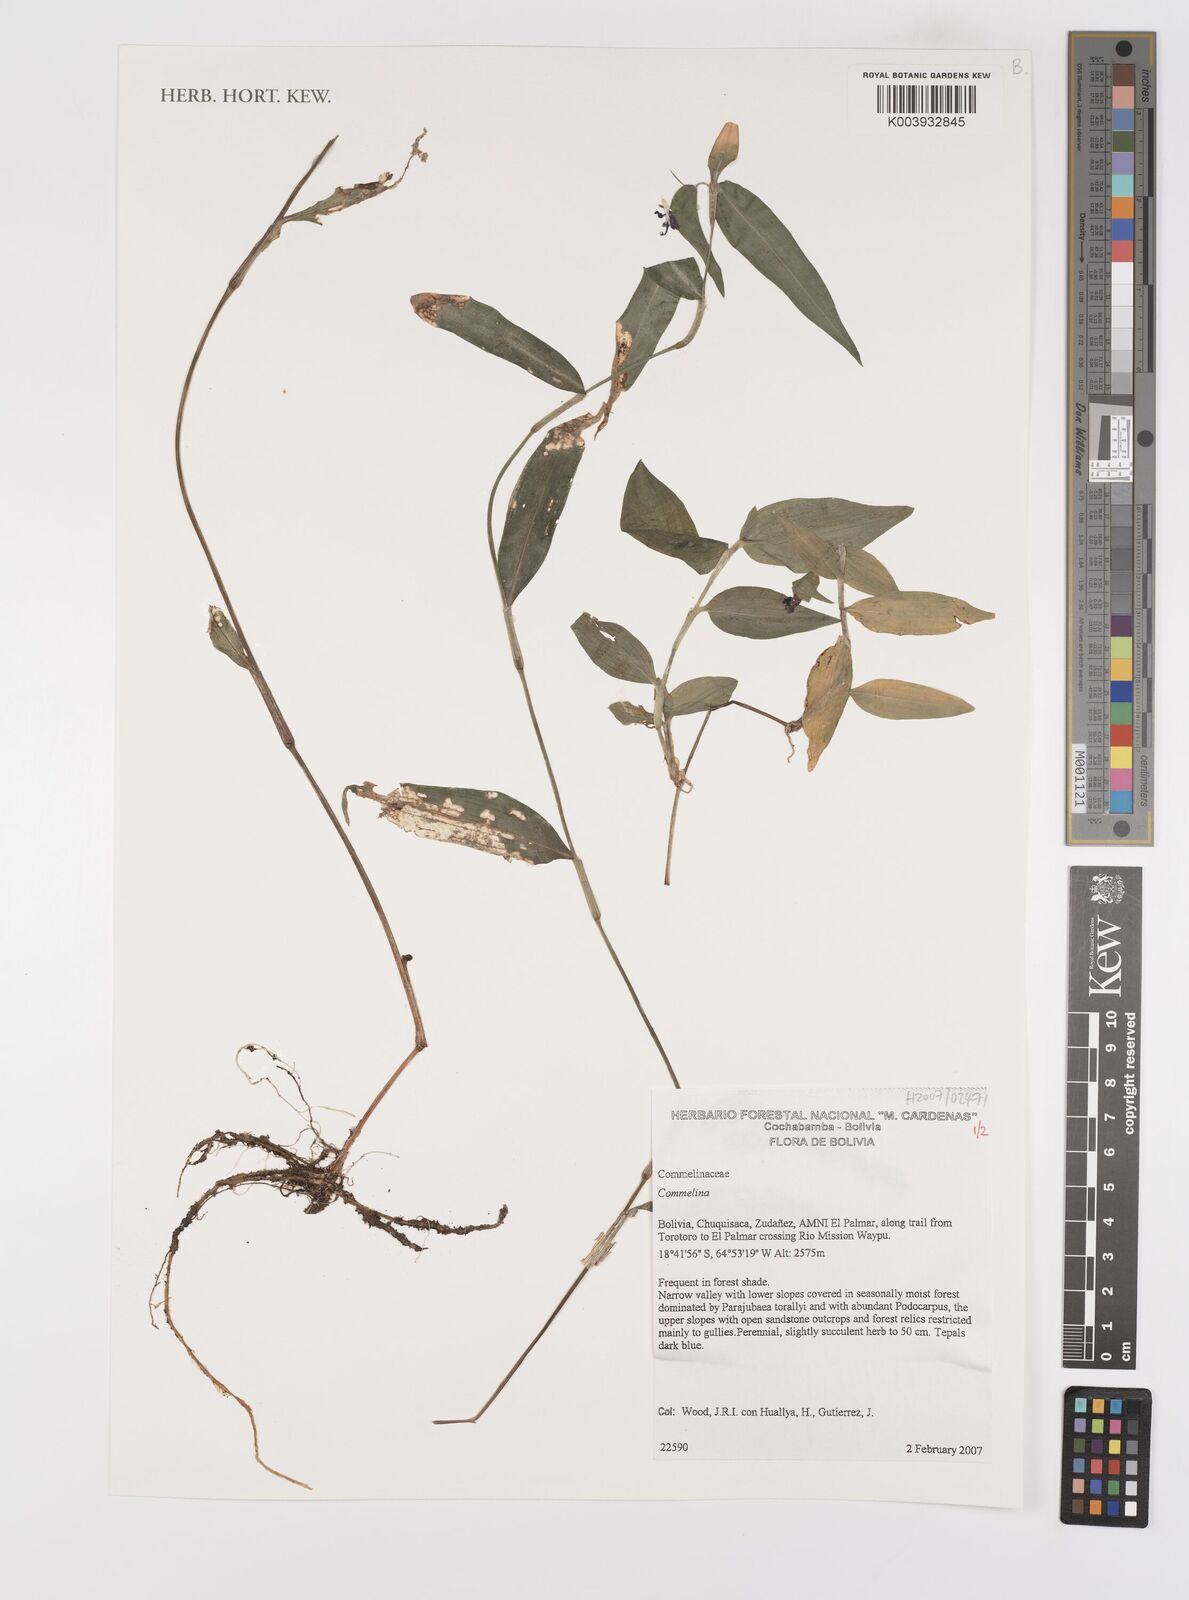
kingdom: Plantae
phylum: Tracheophyta
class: Liliopsida
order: Commelinales
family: Commelinaceae
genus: Commelina
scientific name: Commelina
